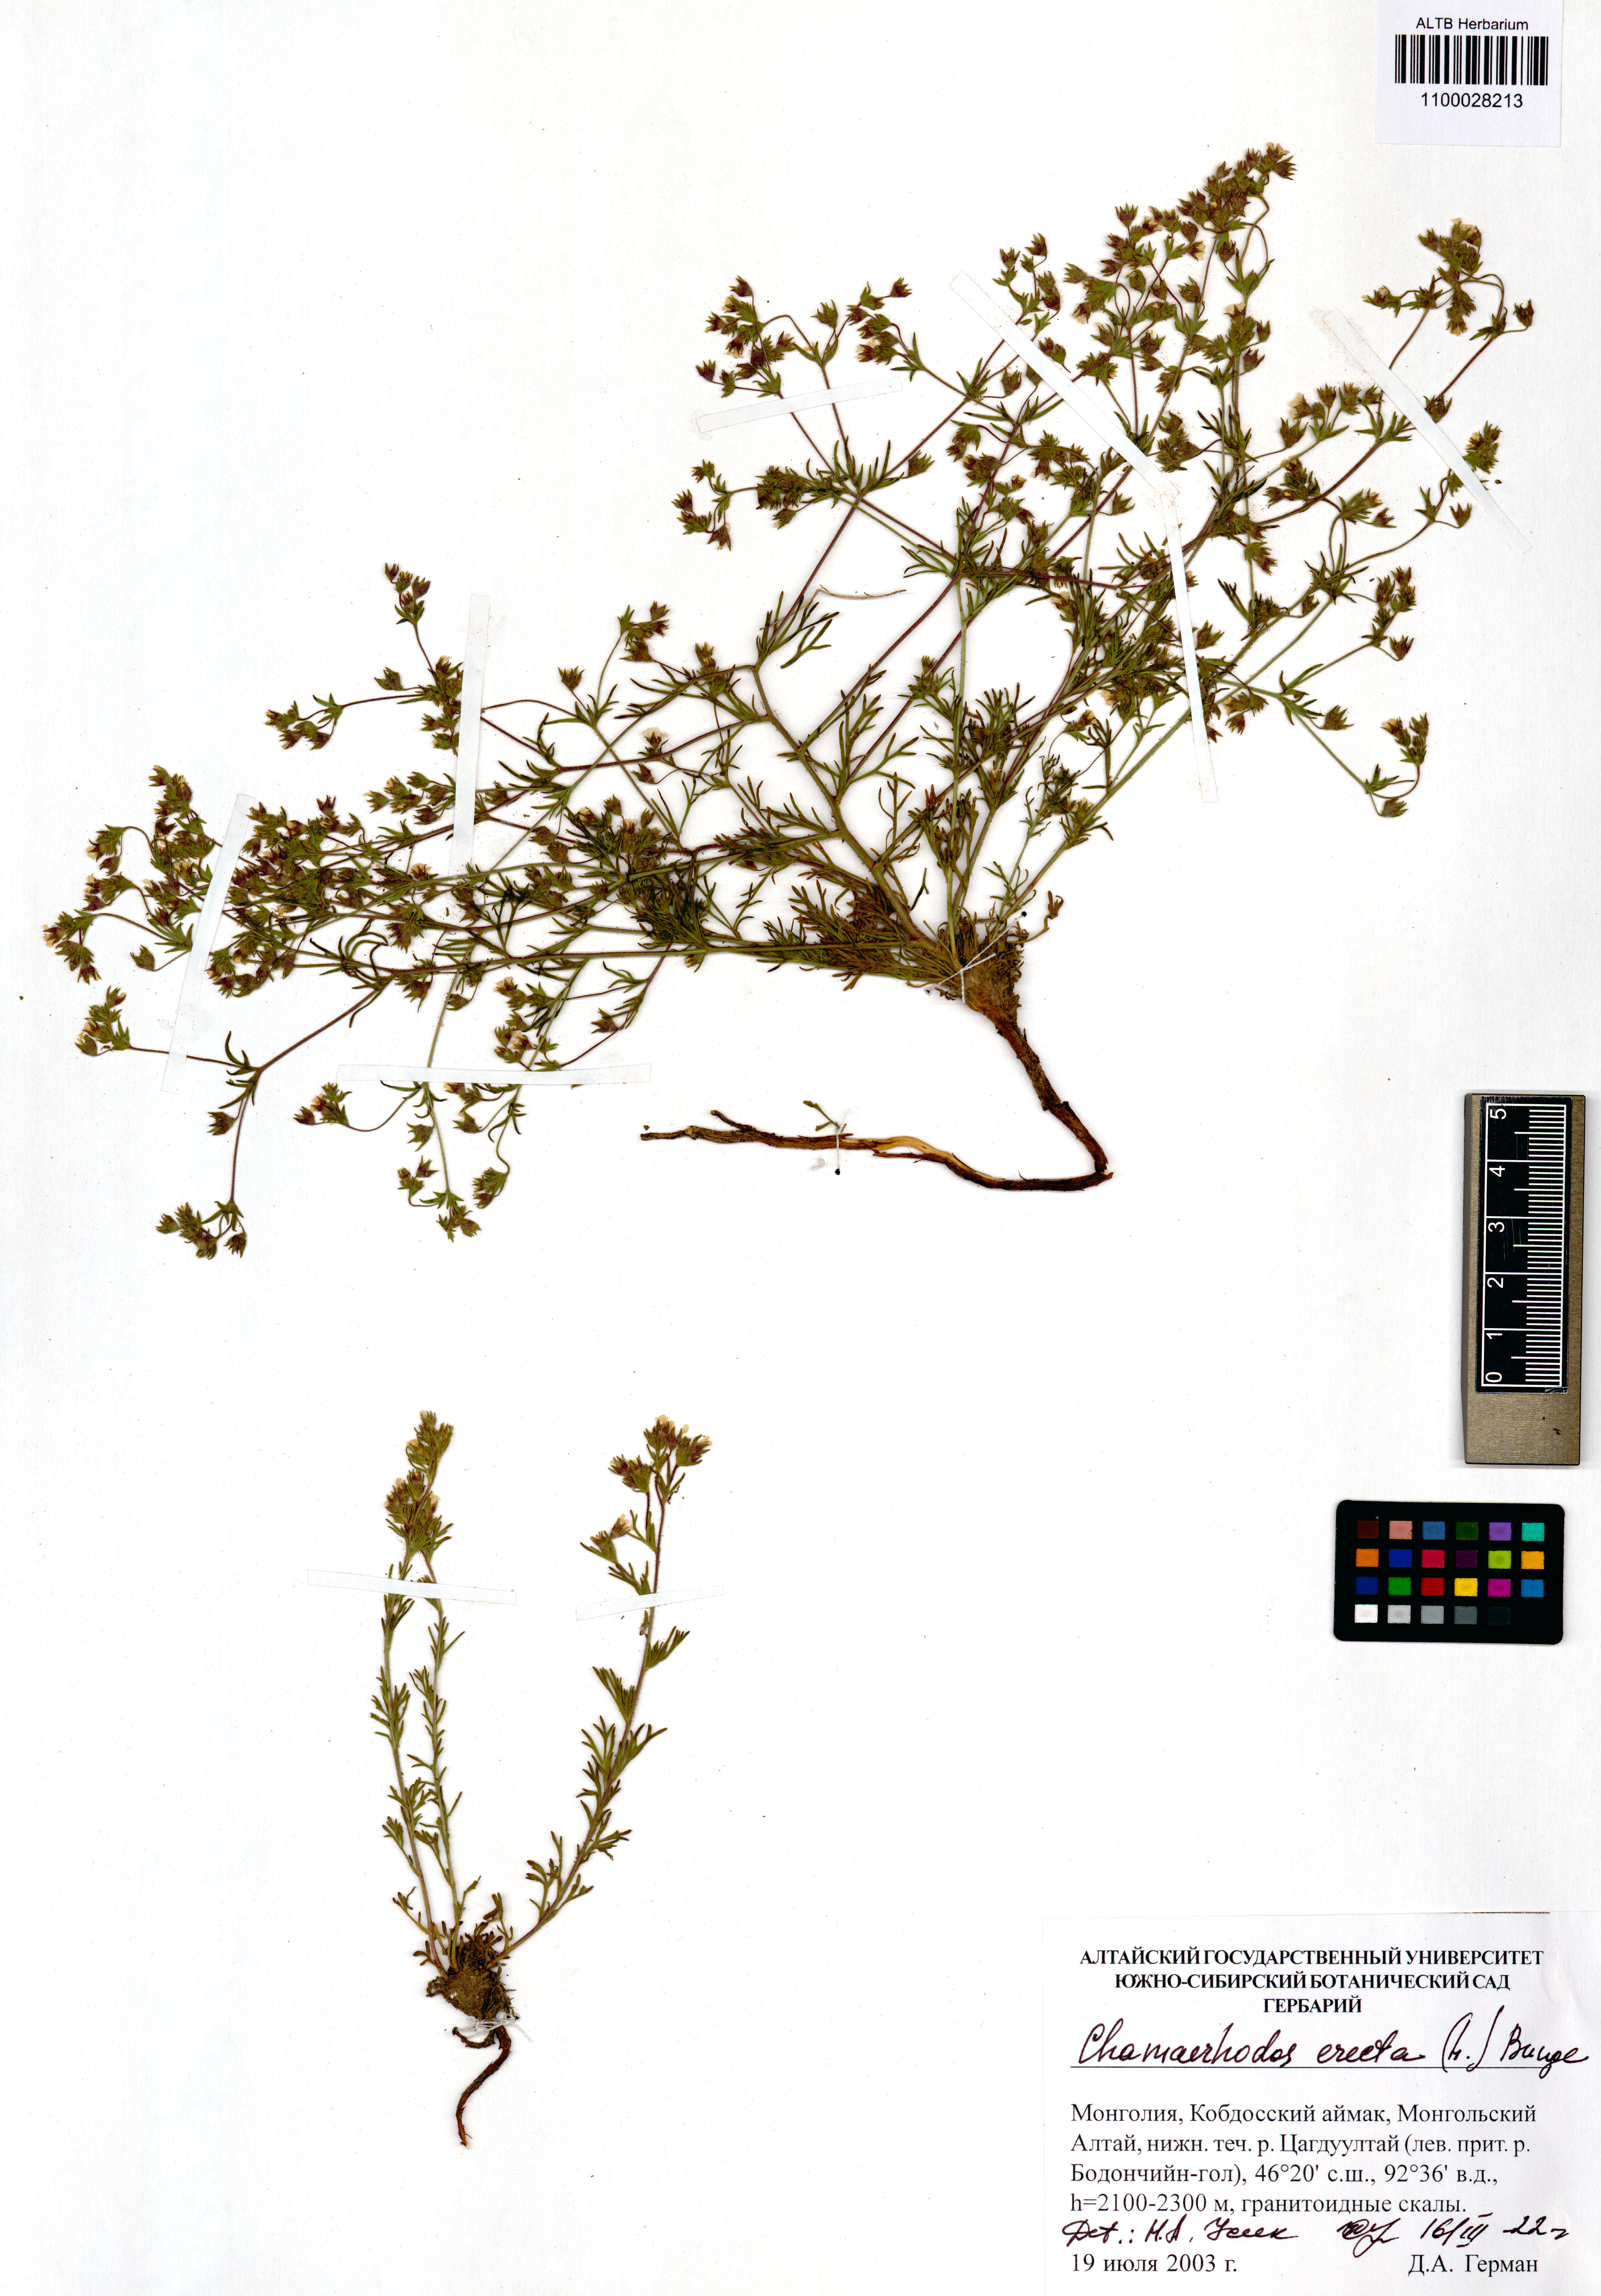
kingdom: Plantae
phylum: Tracheophyta
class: Magnoliopsida
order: Rosales
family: Rosaceae
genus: Chamaerhodos
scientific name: Chamaerhodos erecta
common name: American chamaerhodos
